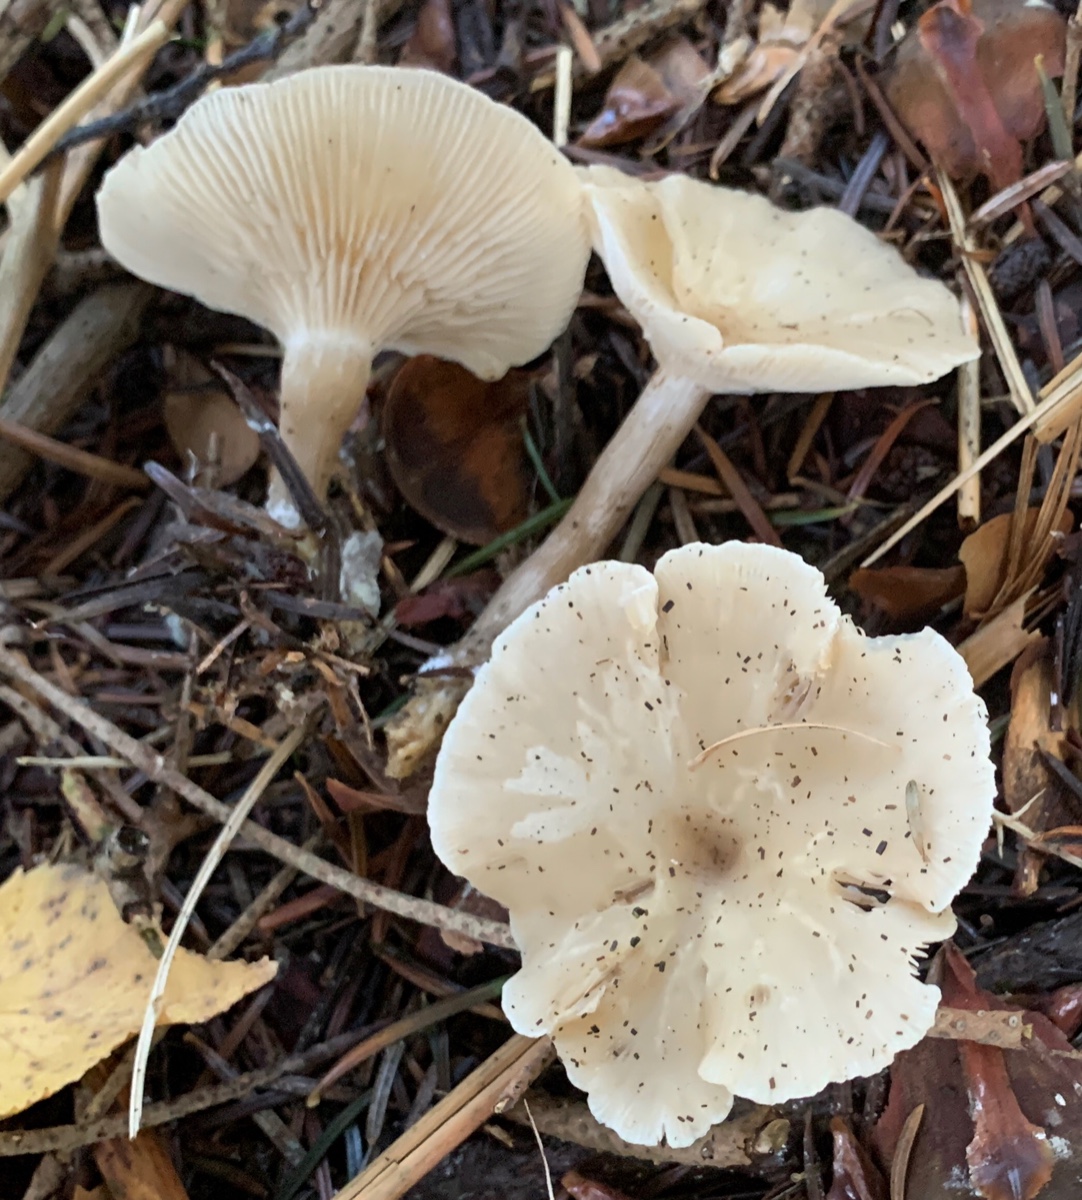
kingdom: Fungi
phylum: Basidiomycota
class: Agaricomycetes
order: Agaricales
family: Tricholomataceae
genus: Clitocybe
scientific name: Clitocybe metachroa
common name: grå tragthat
